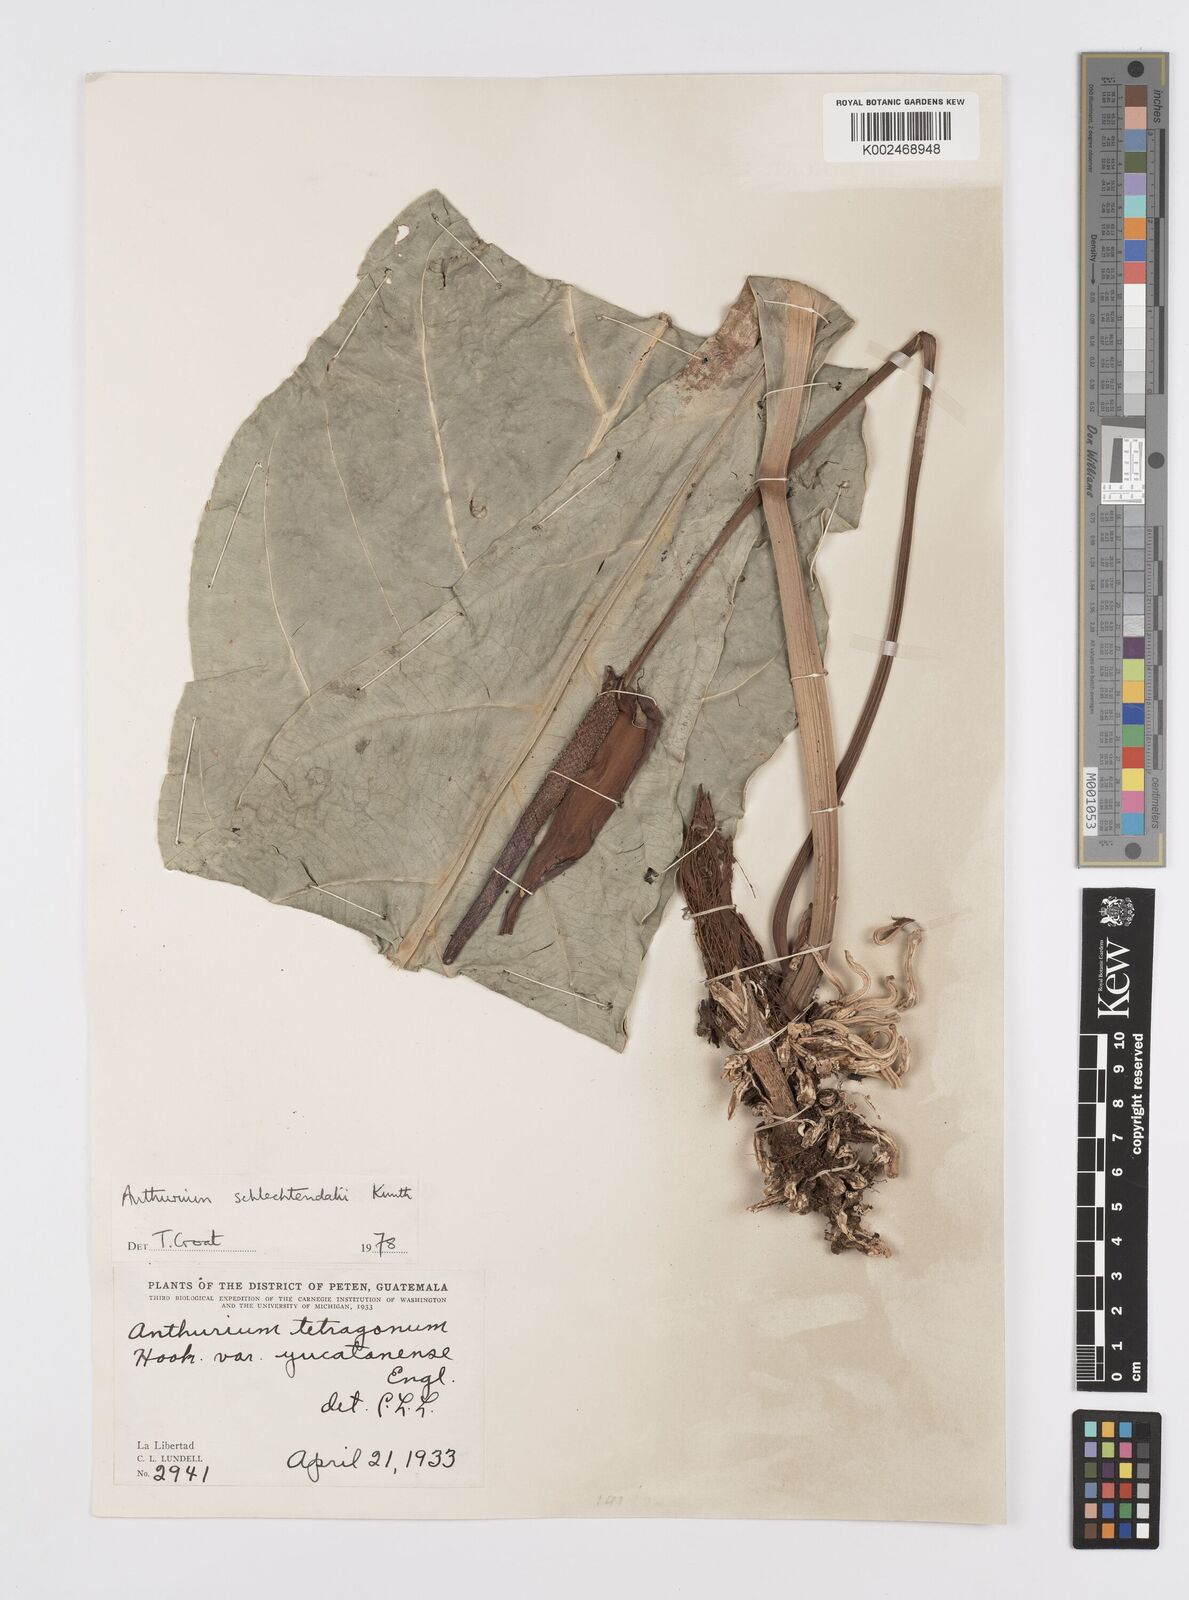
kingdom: Plantae
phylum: Tracheophyta
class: Liliopsida
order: Alismatales
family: Araceae
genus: Anthurium
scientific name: Anthurium schlechtendalii
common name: Laceleaf
